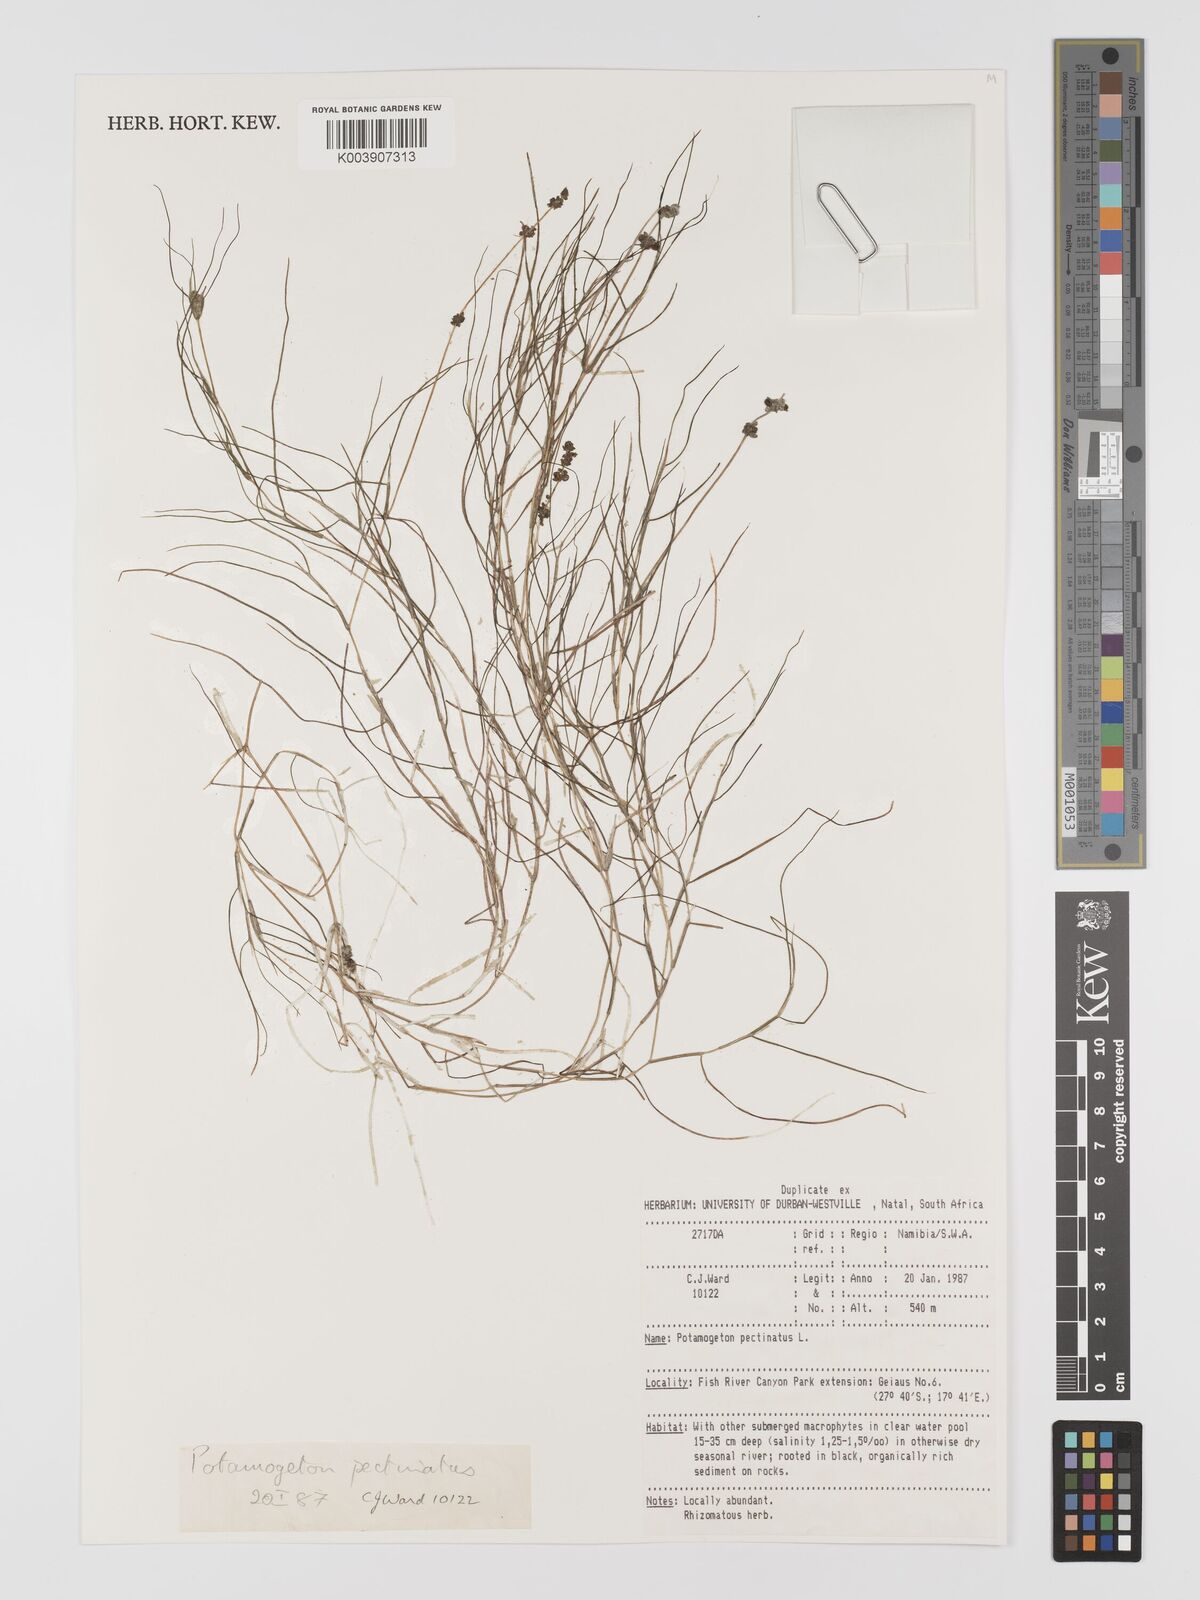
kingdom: Plantae
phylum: Tracheophyta
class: Liliopsida
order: Alismatales
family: Potamogetonaceae
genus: Stuckenia
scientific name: Stuckenia pectinata
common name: Sago pondweed
